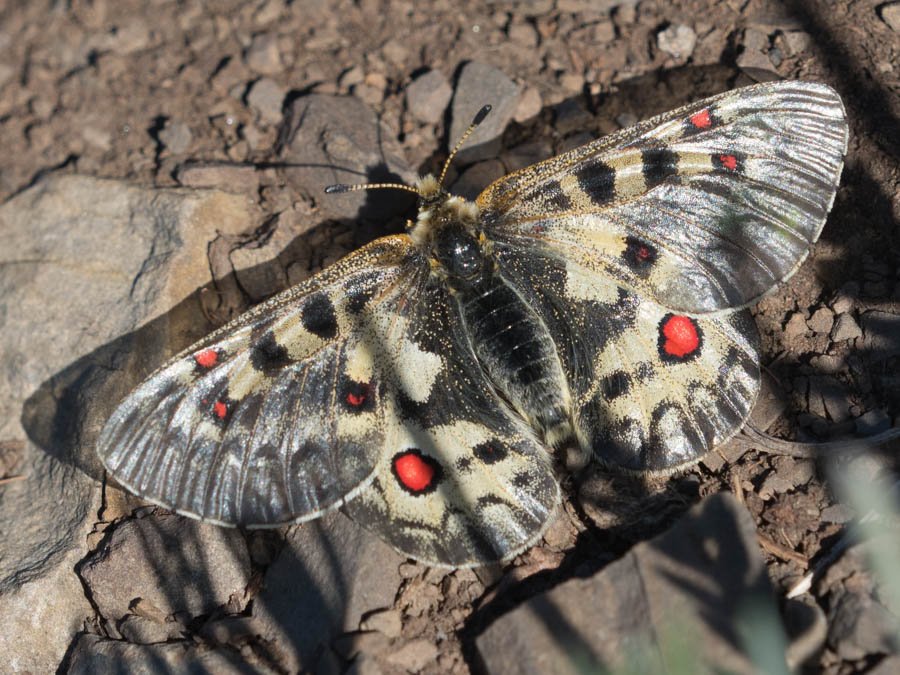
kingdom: Animalia
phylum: Arthropoda
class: Insecta
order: Lepidoptera
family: Papilionidae
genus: Parnassius
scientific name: Parnassius smintheus
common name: Rocky Mountain Parnassian
